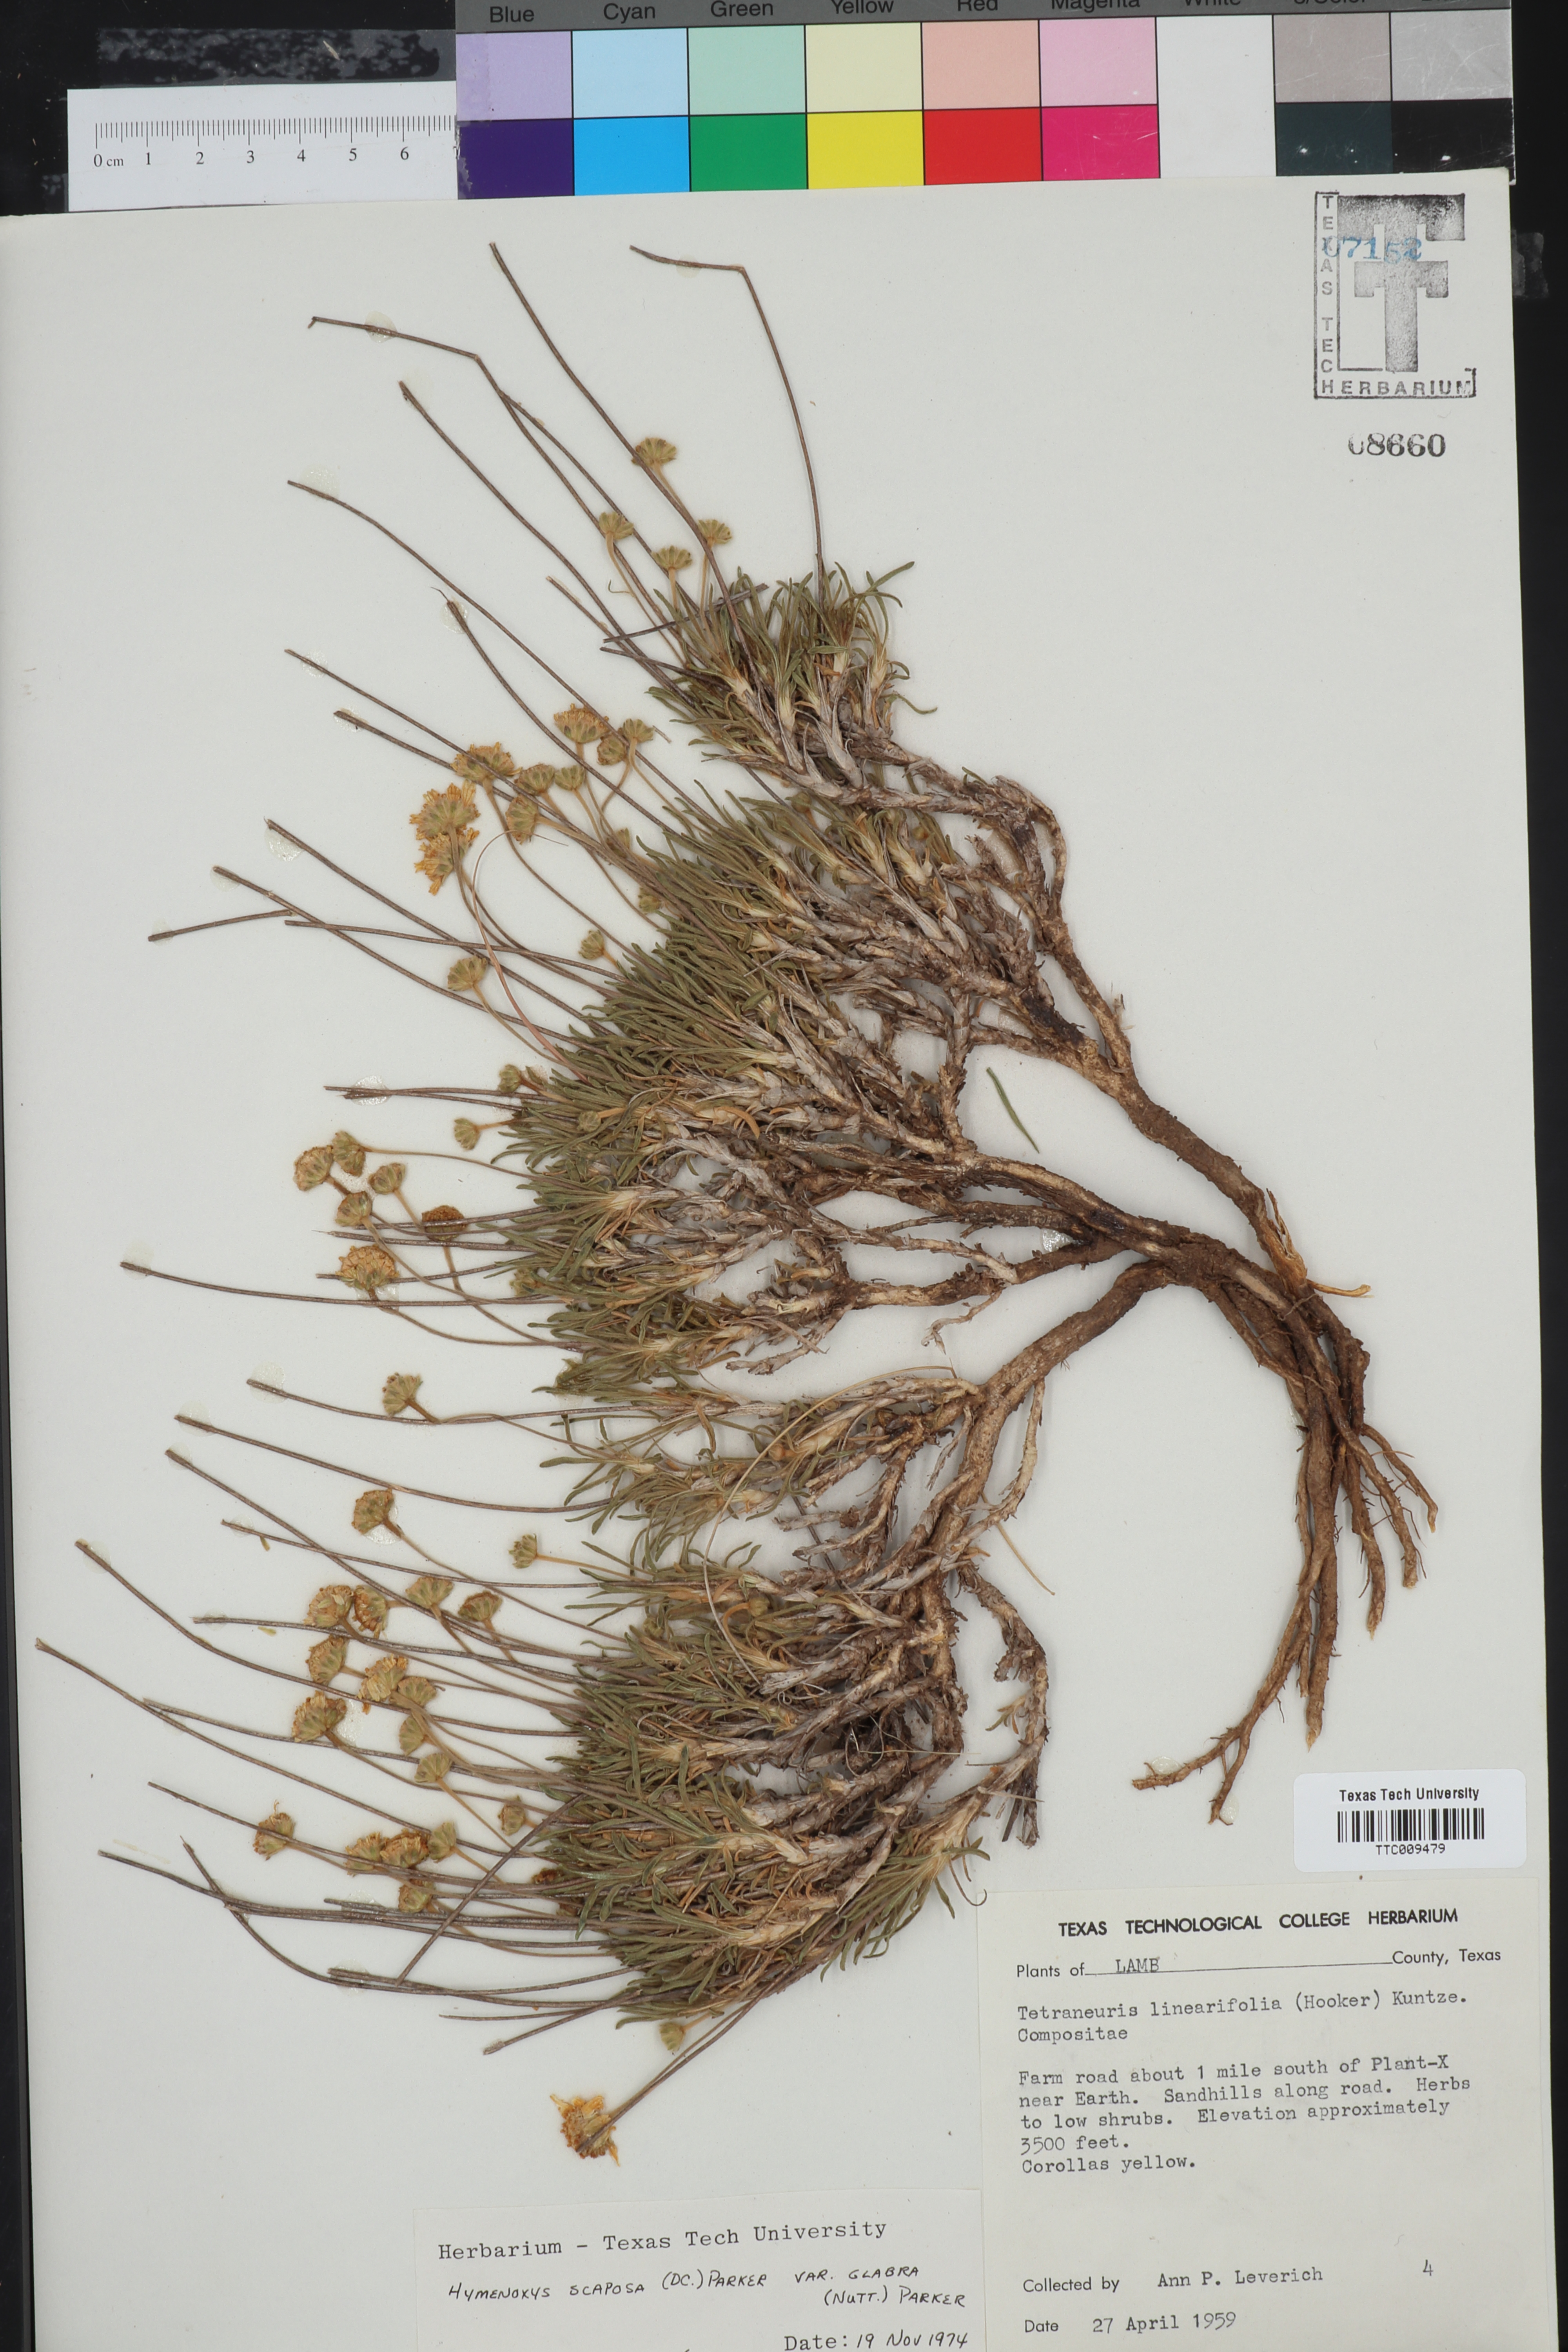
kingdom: Plantae
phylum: Tracheophyta
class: Magnoliopsida
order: Asterales
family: Asteraceae
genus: Tetraneuris
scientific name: Tetraneuris scaposa
